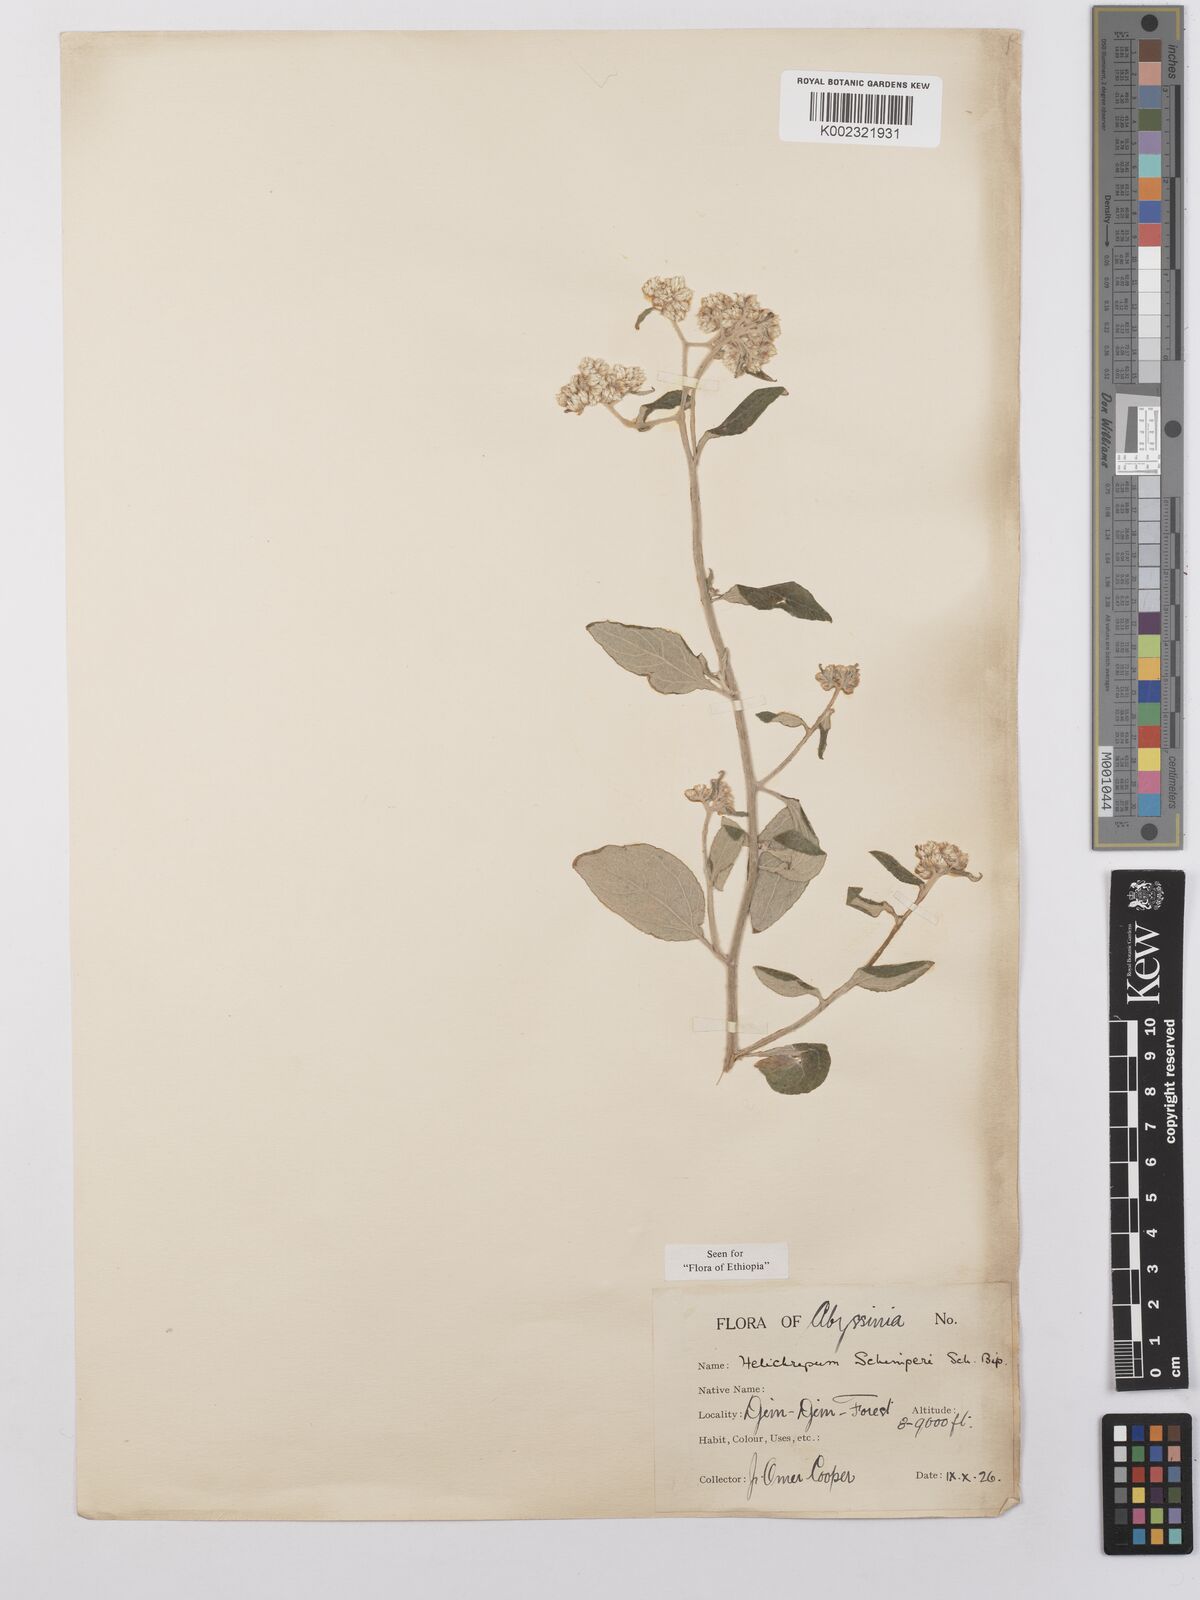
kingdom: Plantae
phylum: Tracheophyta
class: Magnoliopsida
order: Asterales
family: Asteraceae
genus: Helichrysum
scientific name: Helichrysum schimperi
